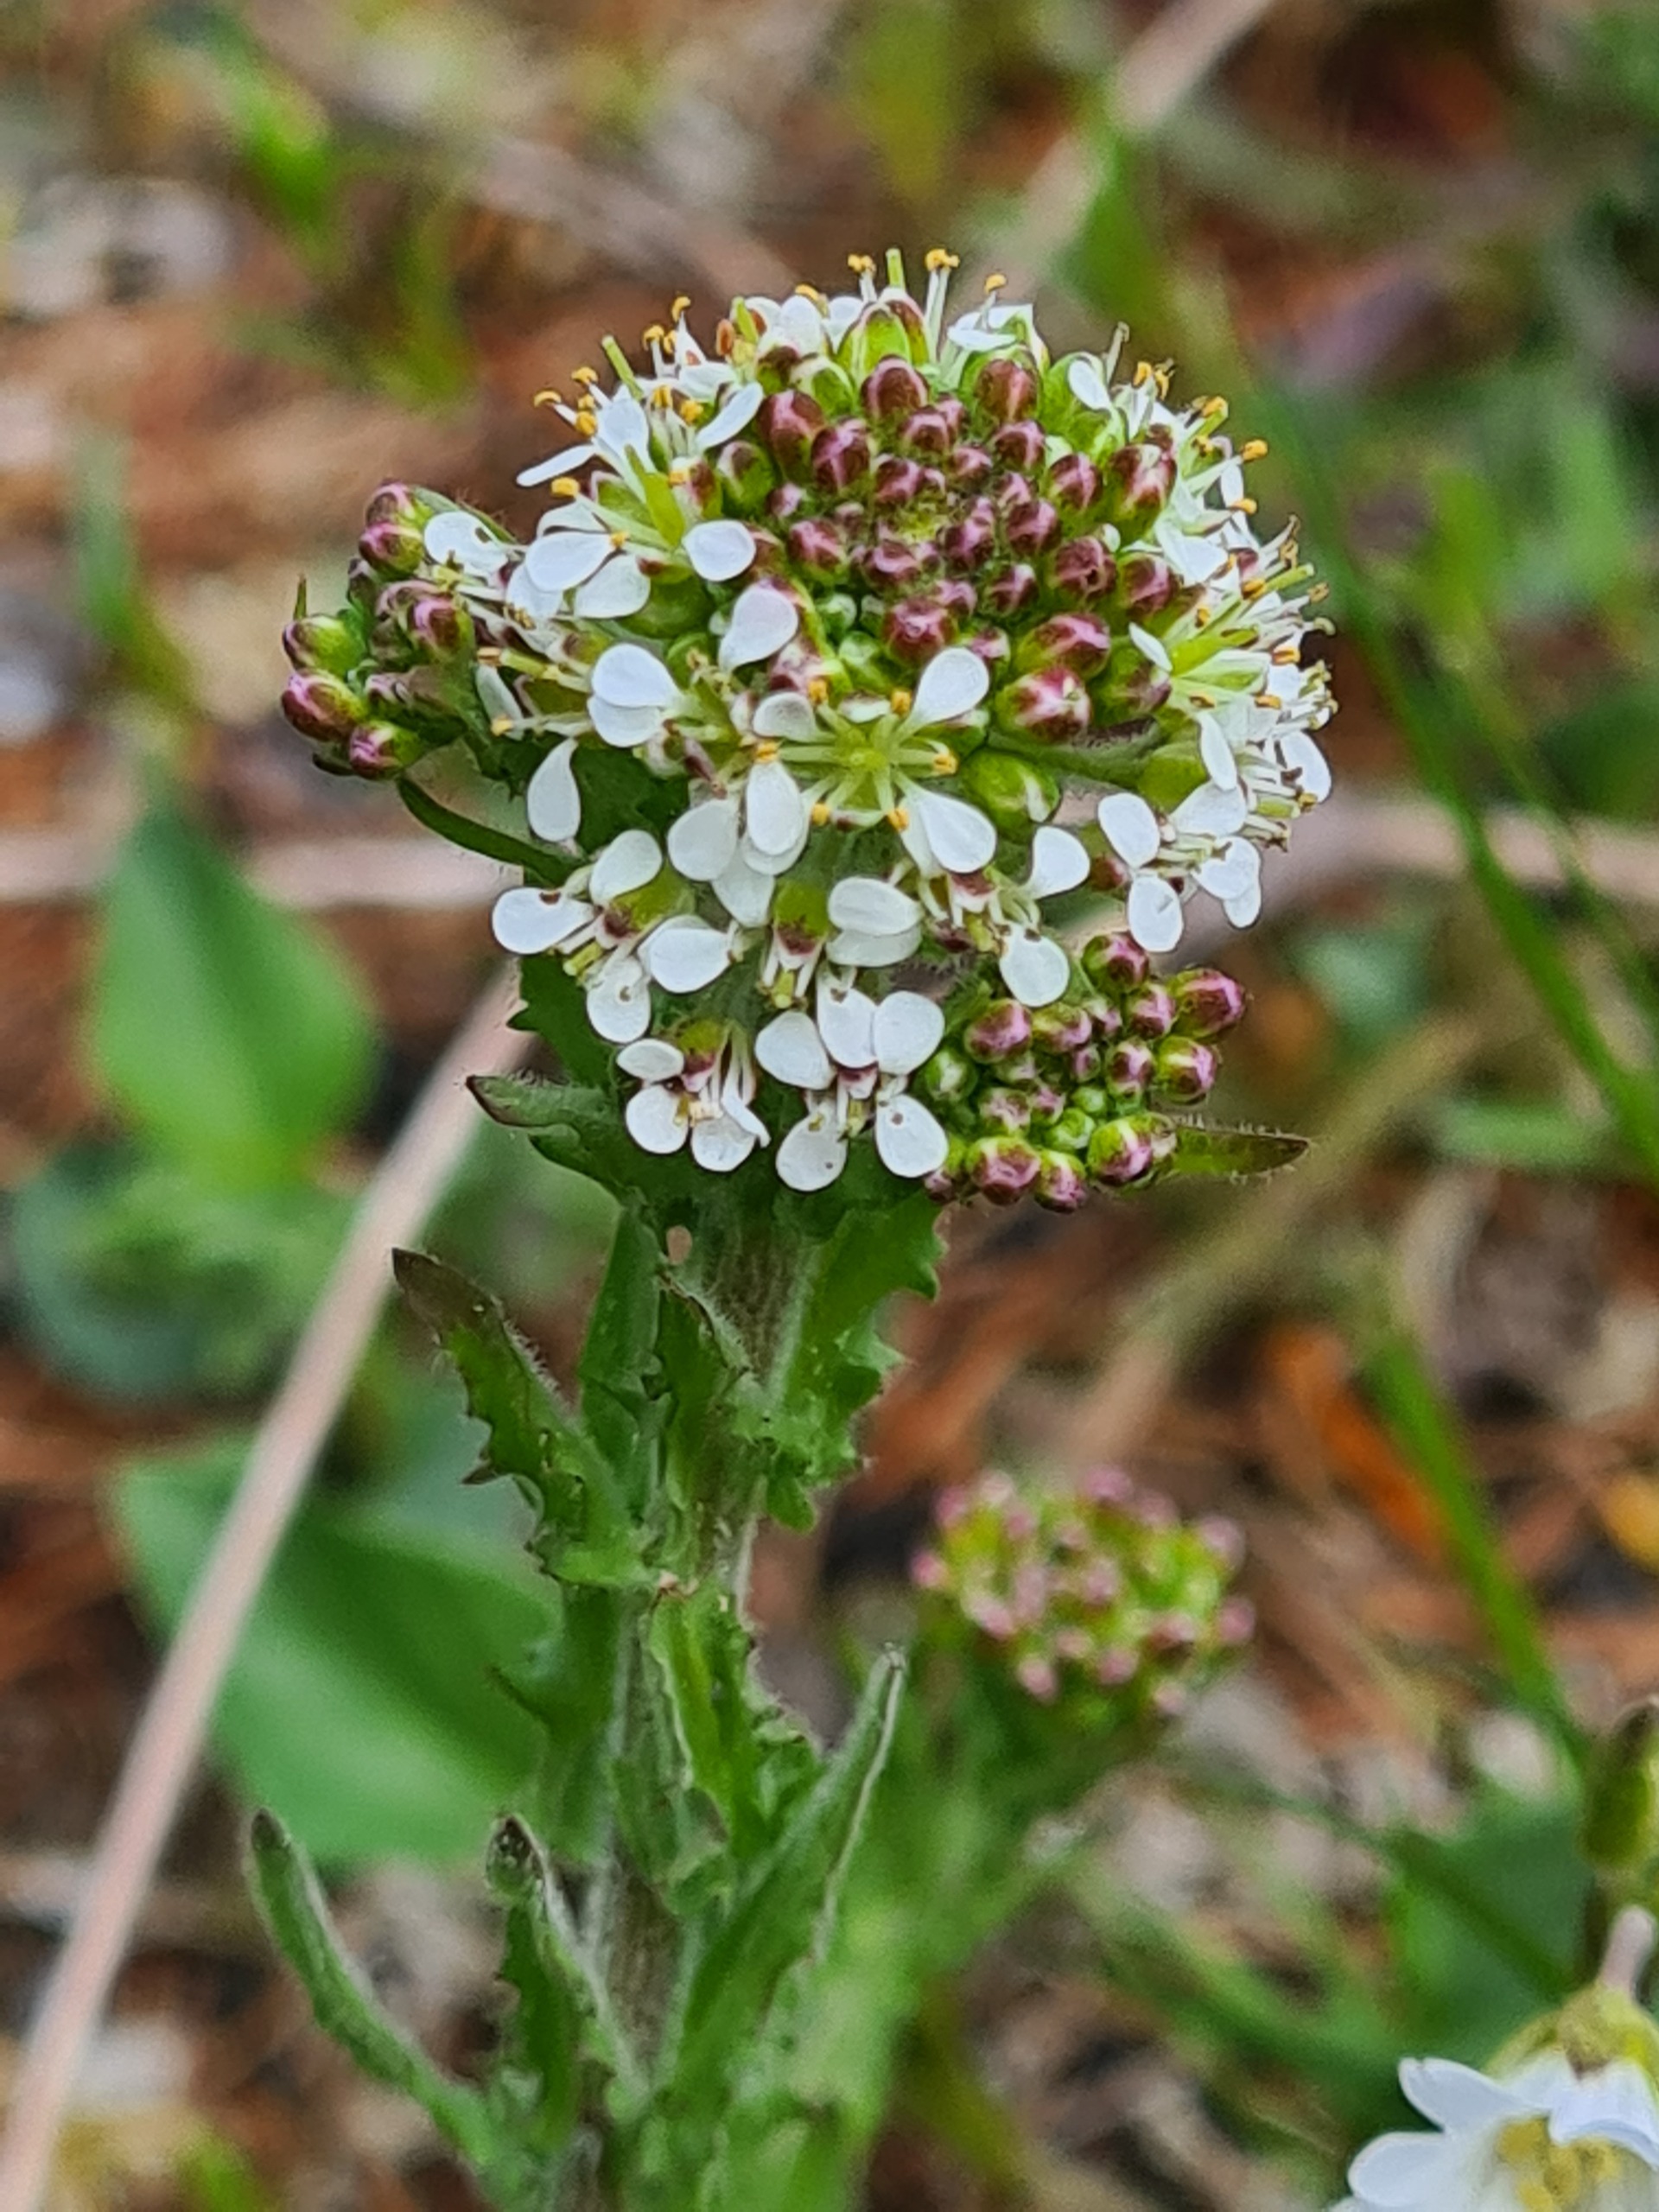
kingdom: Plantae
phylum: Tracheophyta
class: Magnoliopsida
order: Brassicales
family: Brassicaceae
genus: Lepidium
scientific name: Lepidium heterophyllum
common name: Forskelligbladet karse
